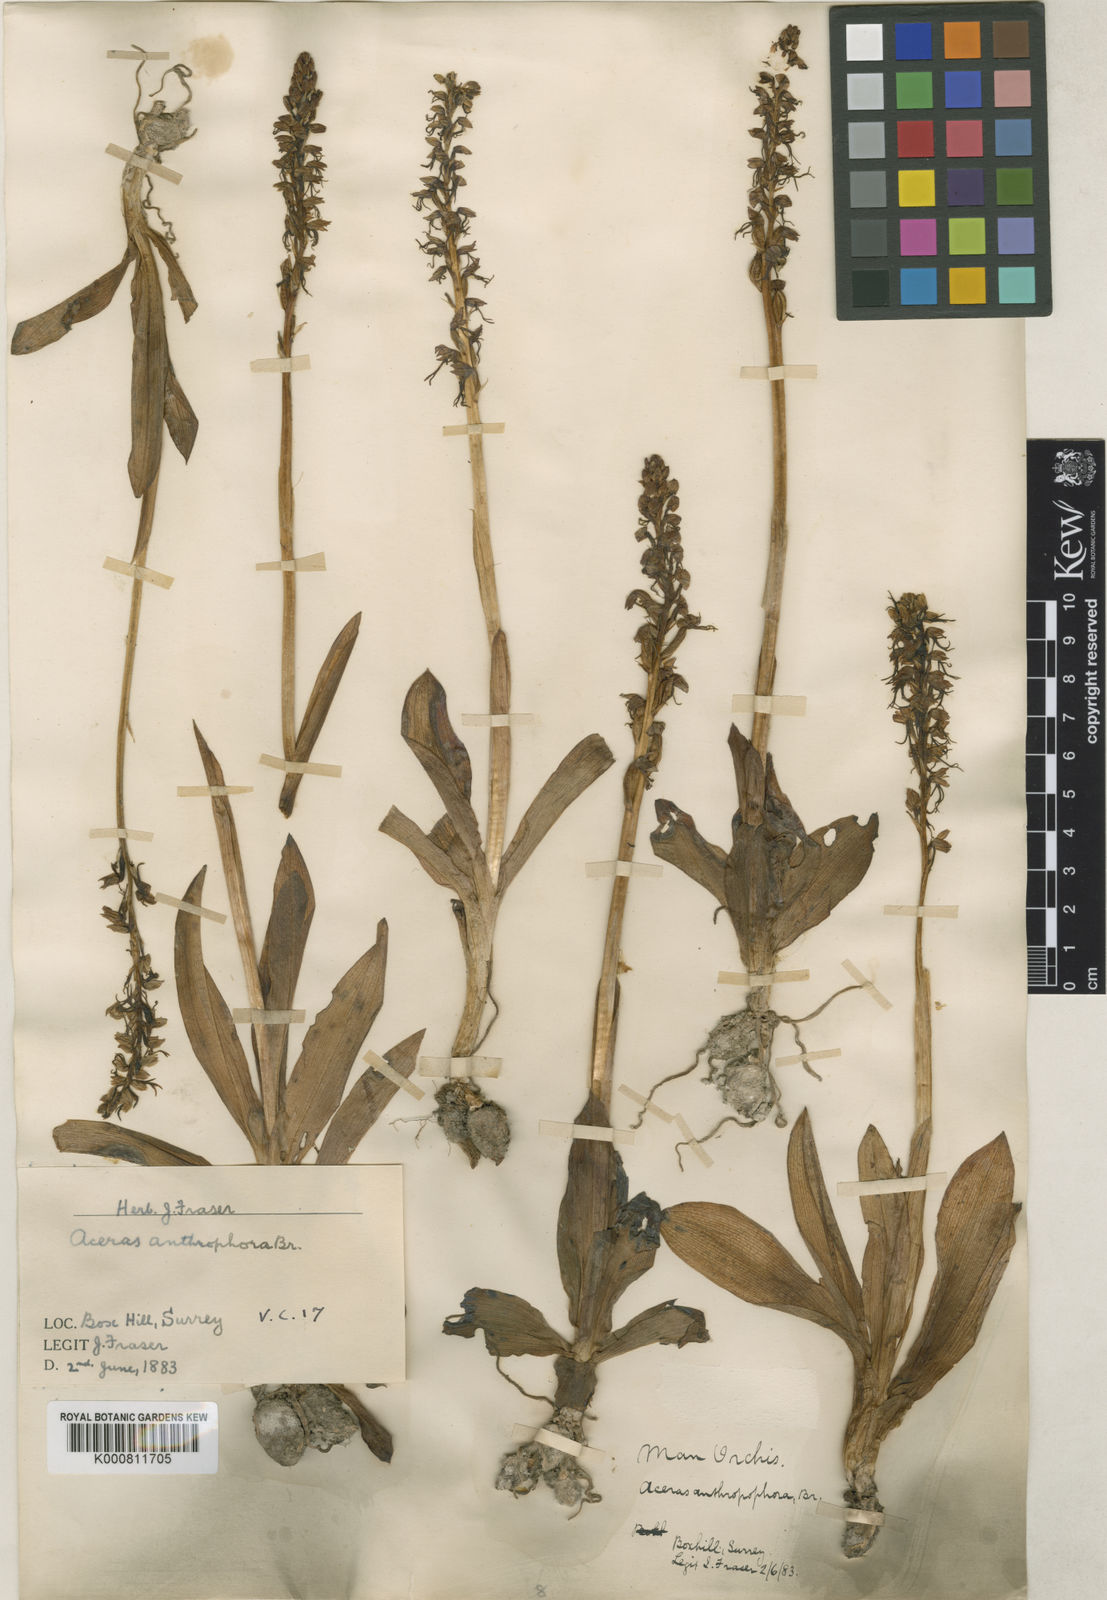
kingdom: Plantae
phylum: Tracheophyta
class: Liliopsida
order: Asparagales
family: Orchidaceae
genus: Orchis
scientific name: Orchis
